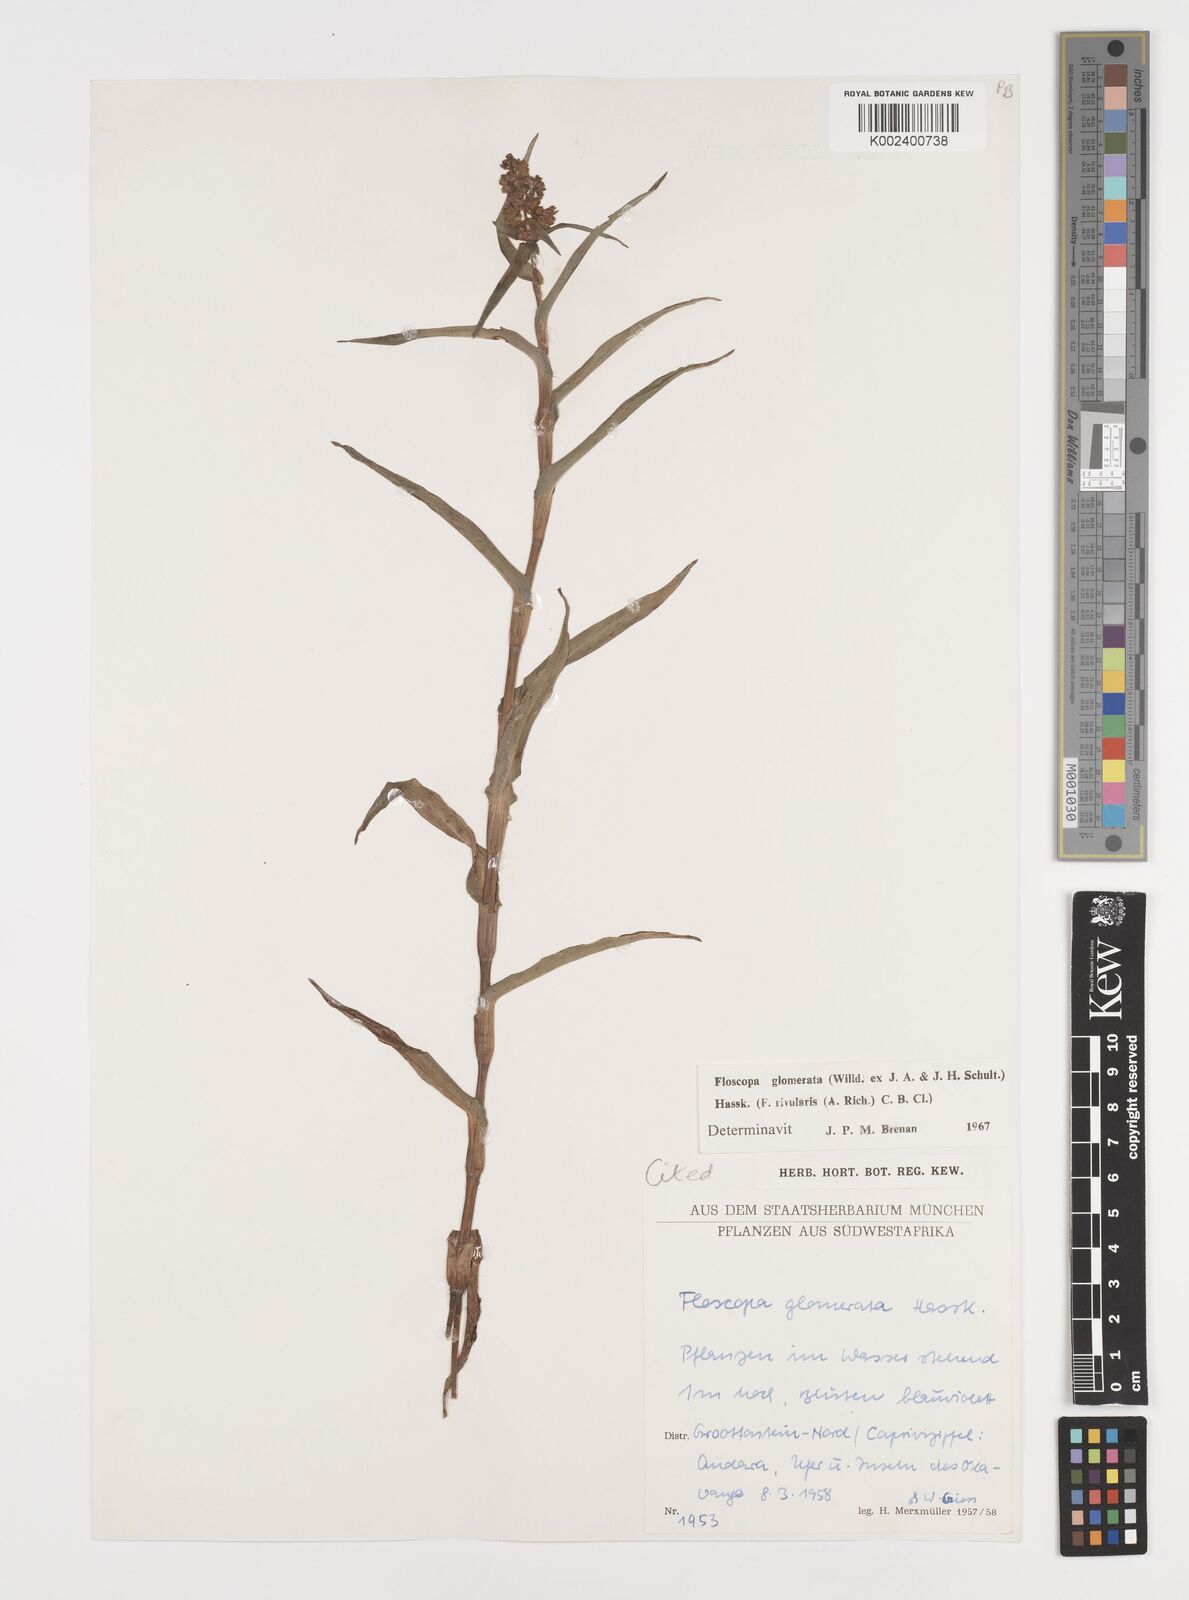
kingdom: Plantae
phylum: Tracheophyta
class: Liliopsida
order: Commelinales
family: Commelinaceae
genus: Floscopa
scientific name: Floscopa glomerata
